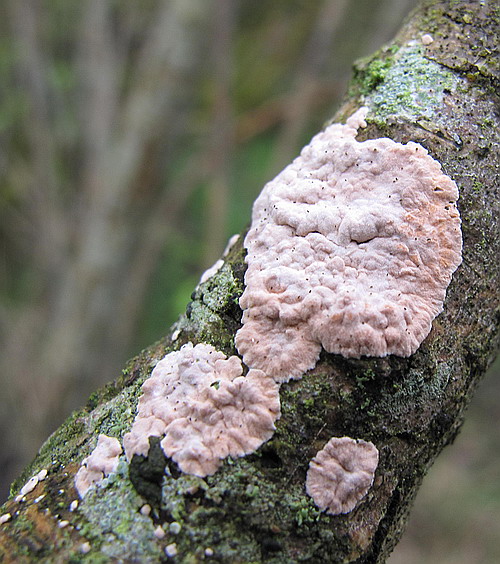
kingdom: Fungi
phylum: Basidiomycota
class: Agaricomycetes
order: Corticiales
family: Corticiaceae
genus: Corticium
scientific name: Corticium roseum
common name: rosa barkskind
